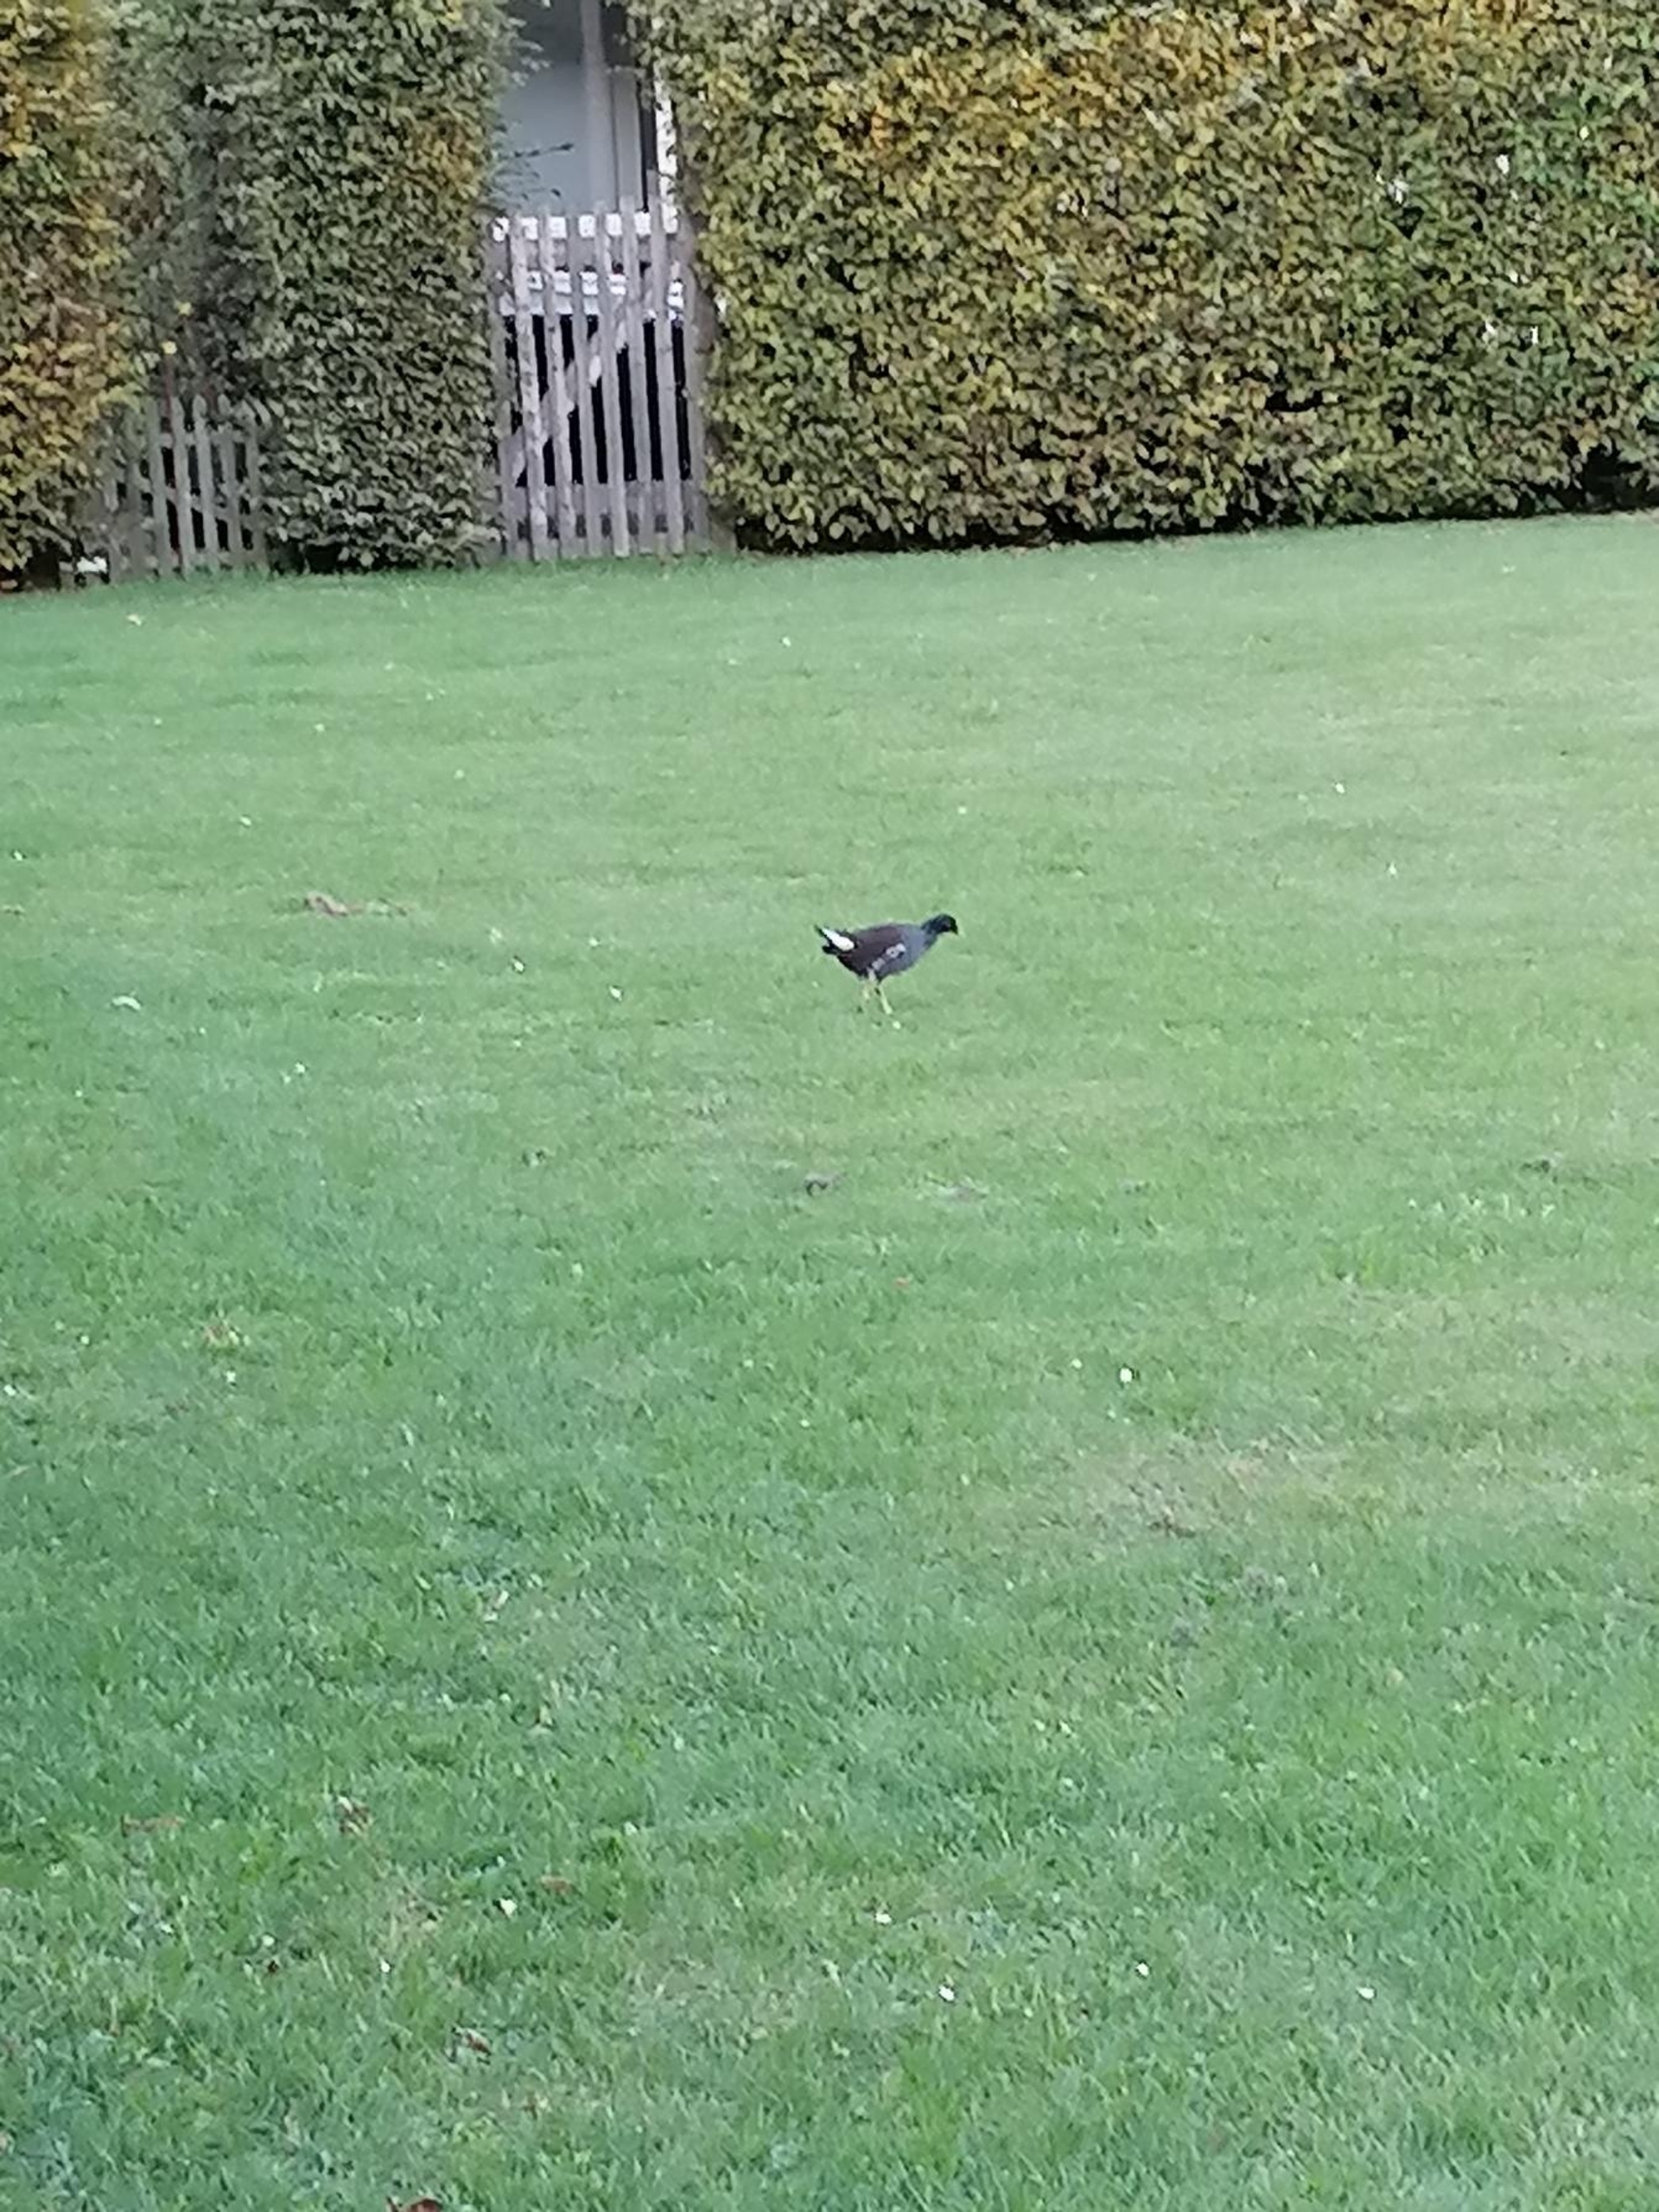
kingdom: Animalia
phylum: Chordata
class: Aves
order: Gruiformes
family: Rallidae
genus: Gallinula
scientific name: Gallinula chloropus
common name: Grønbenet rørhøne
